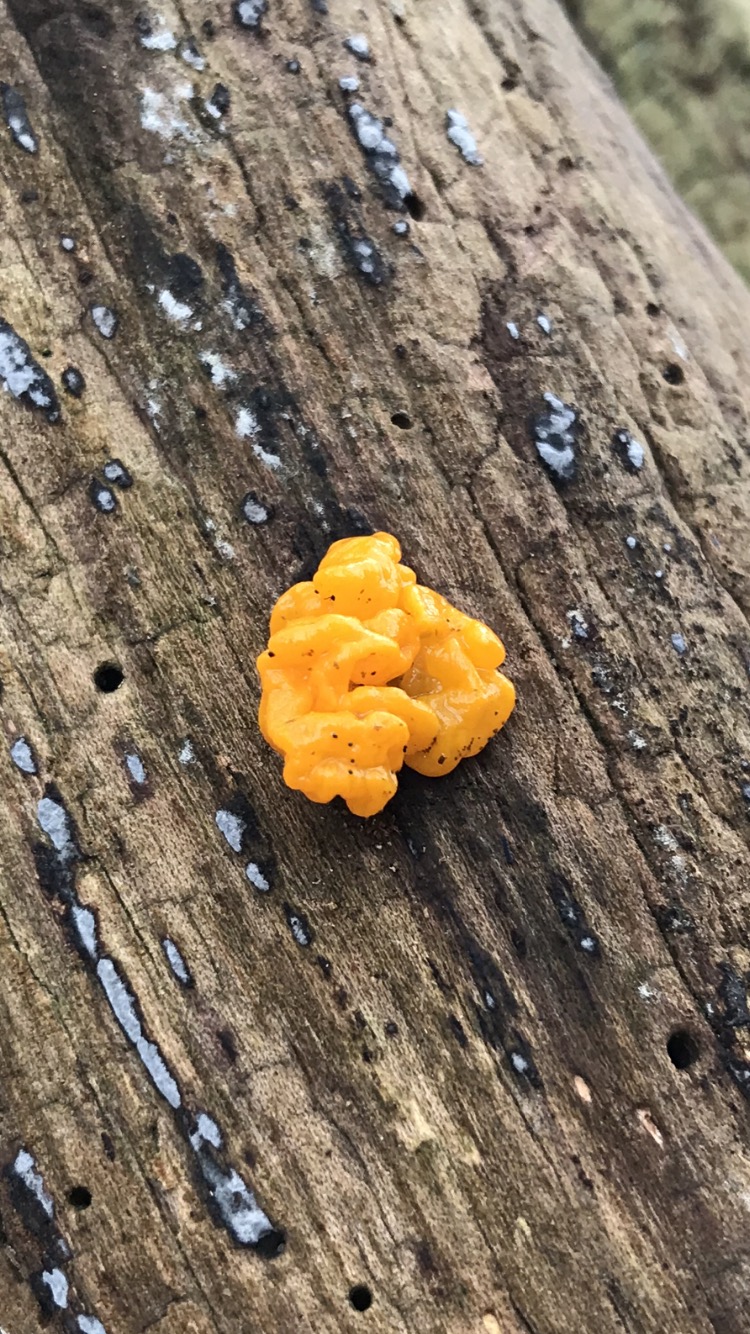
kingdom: Fungi
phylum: Basidiomycota
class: Tremellomycetes
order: Tremellales
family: Tremellaceae
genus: Tremella
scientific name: Tremella mesenterica
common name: gul bævresvamp
